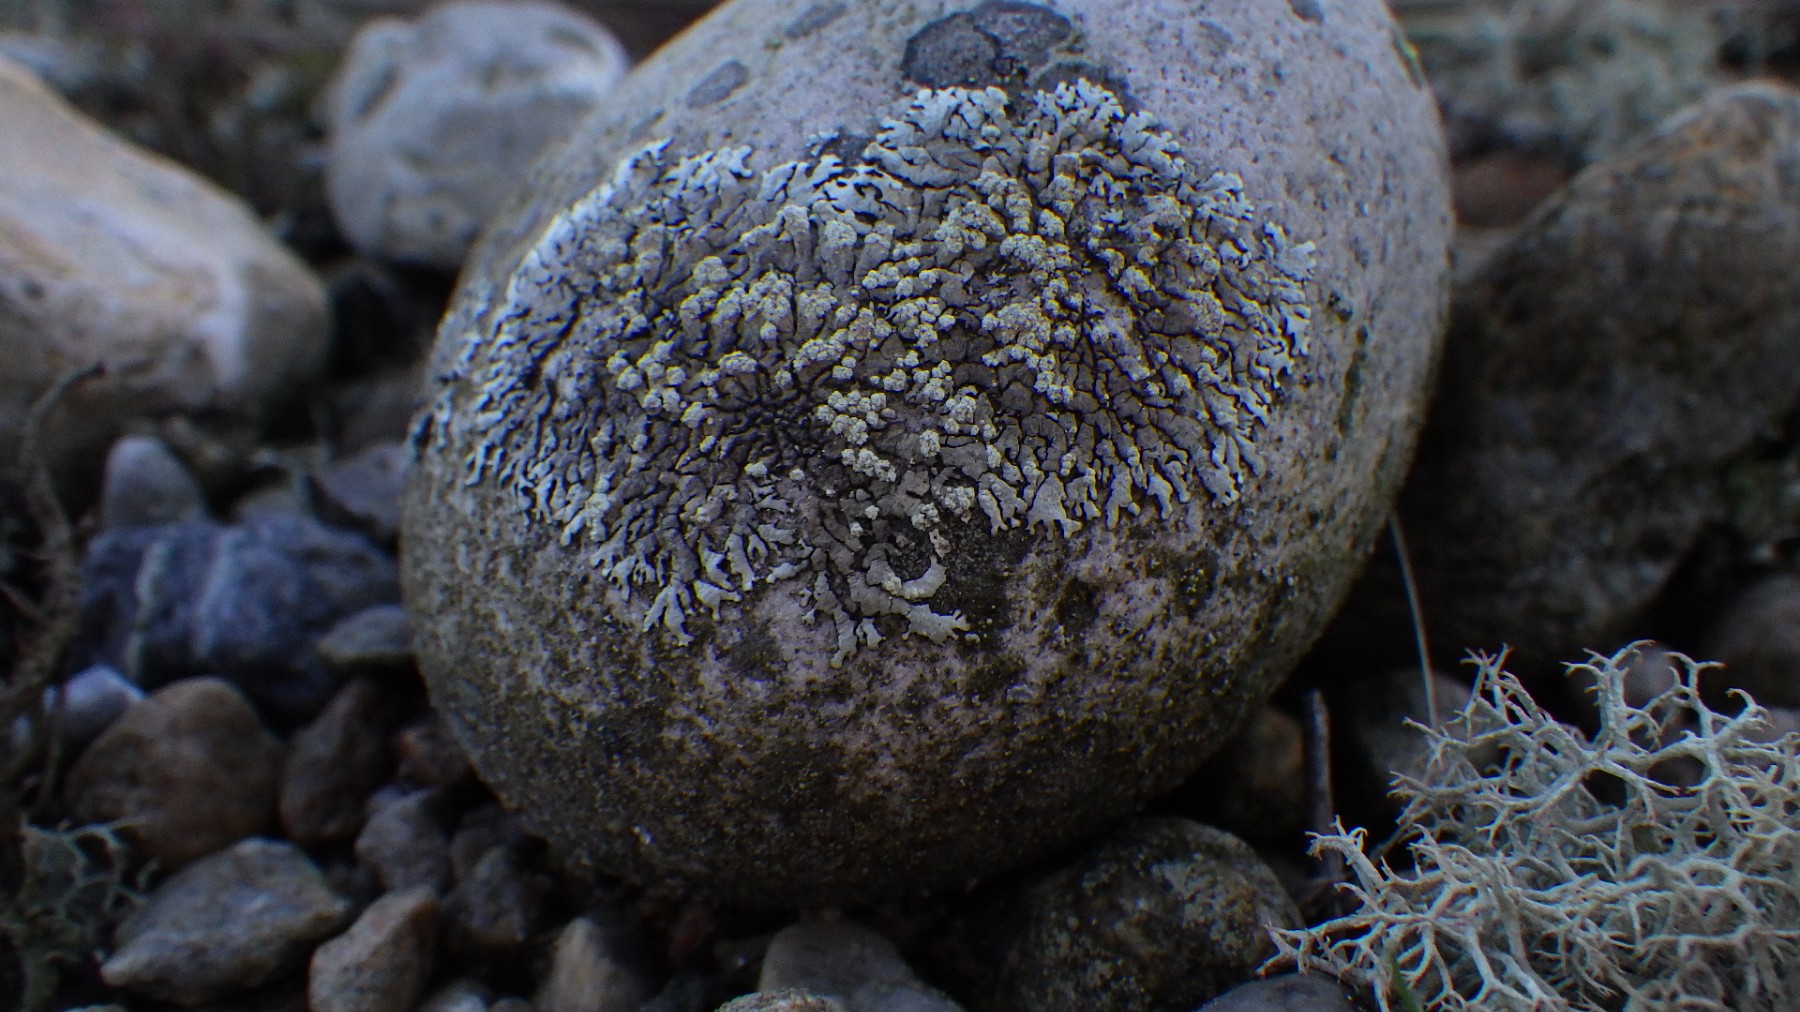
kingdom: Fungi
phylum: Ascomycota
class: Lecanoromycetes
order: Lecanorales
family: Parmeliaceae
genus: Xanthoparmelia
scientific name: Xanthoparmelia mougeotii
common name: liden skållav
